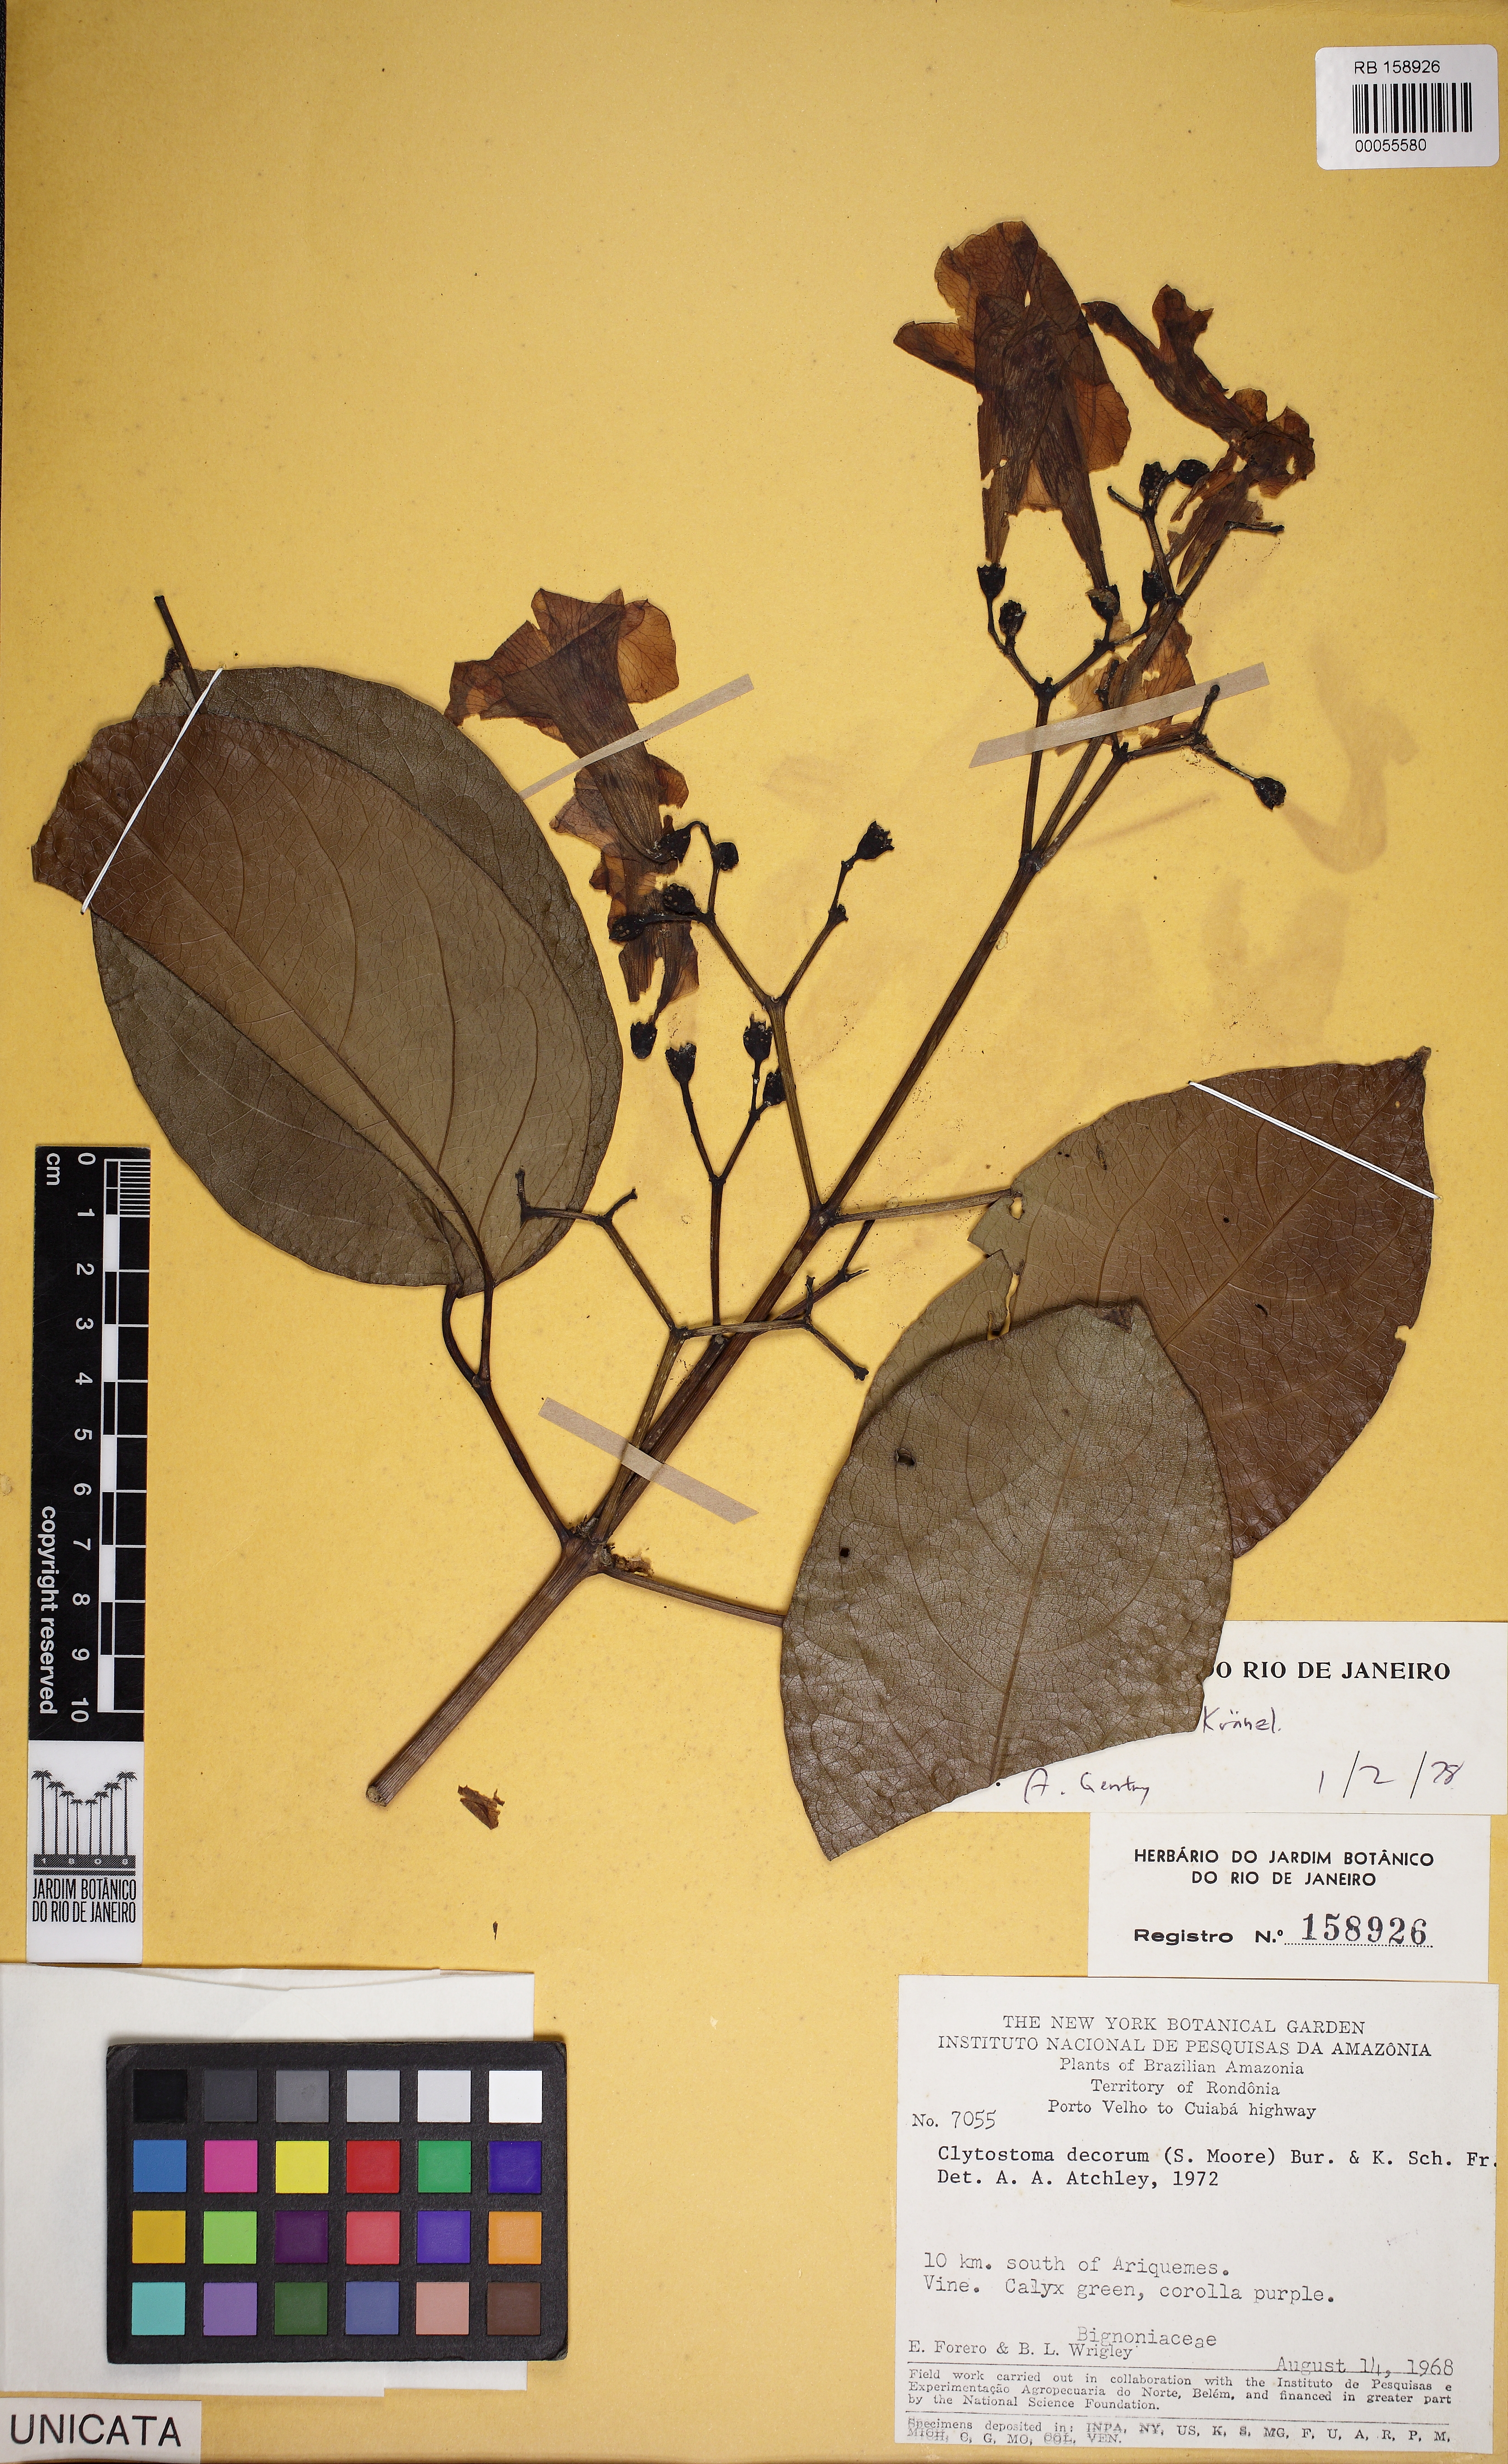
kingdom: Plantae
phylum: Tracheophyta
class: Magnoliopsida
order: Lamiales
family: Bignoniaceae
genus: Bignonia
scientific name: Bignonia uleana
